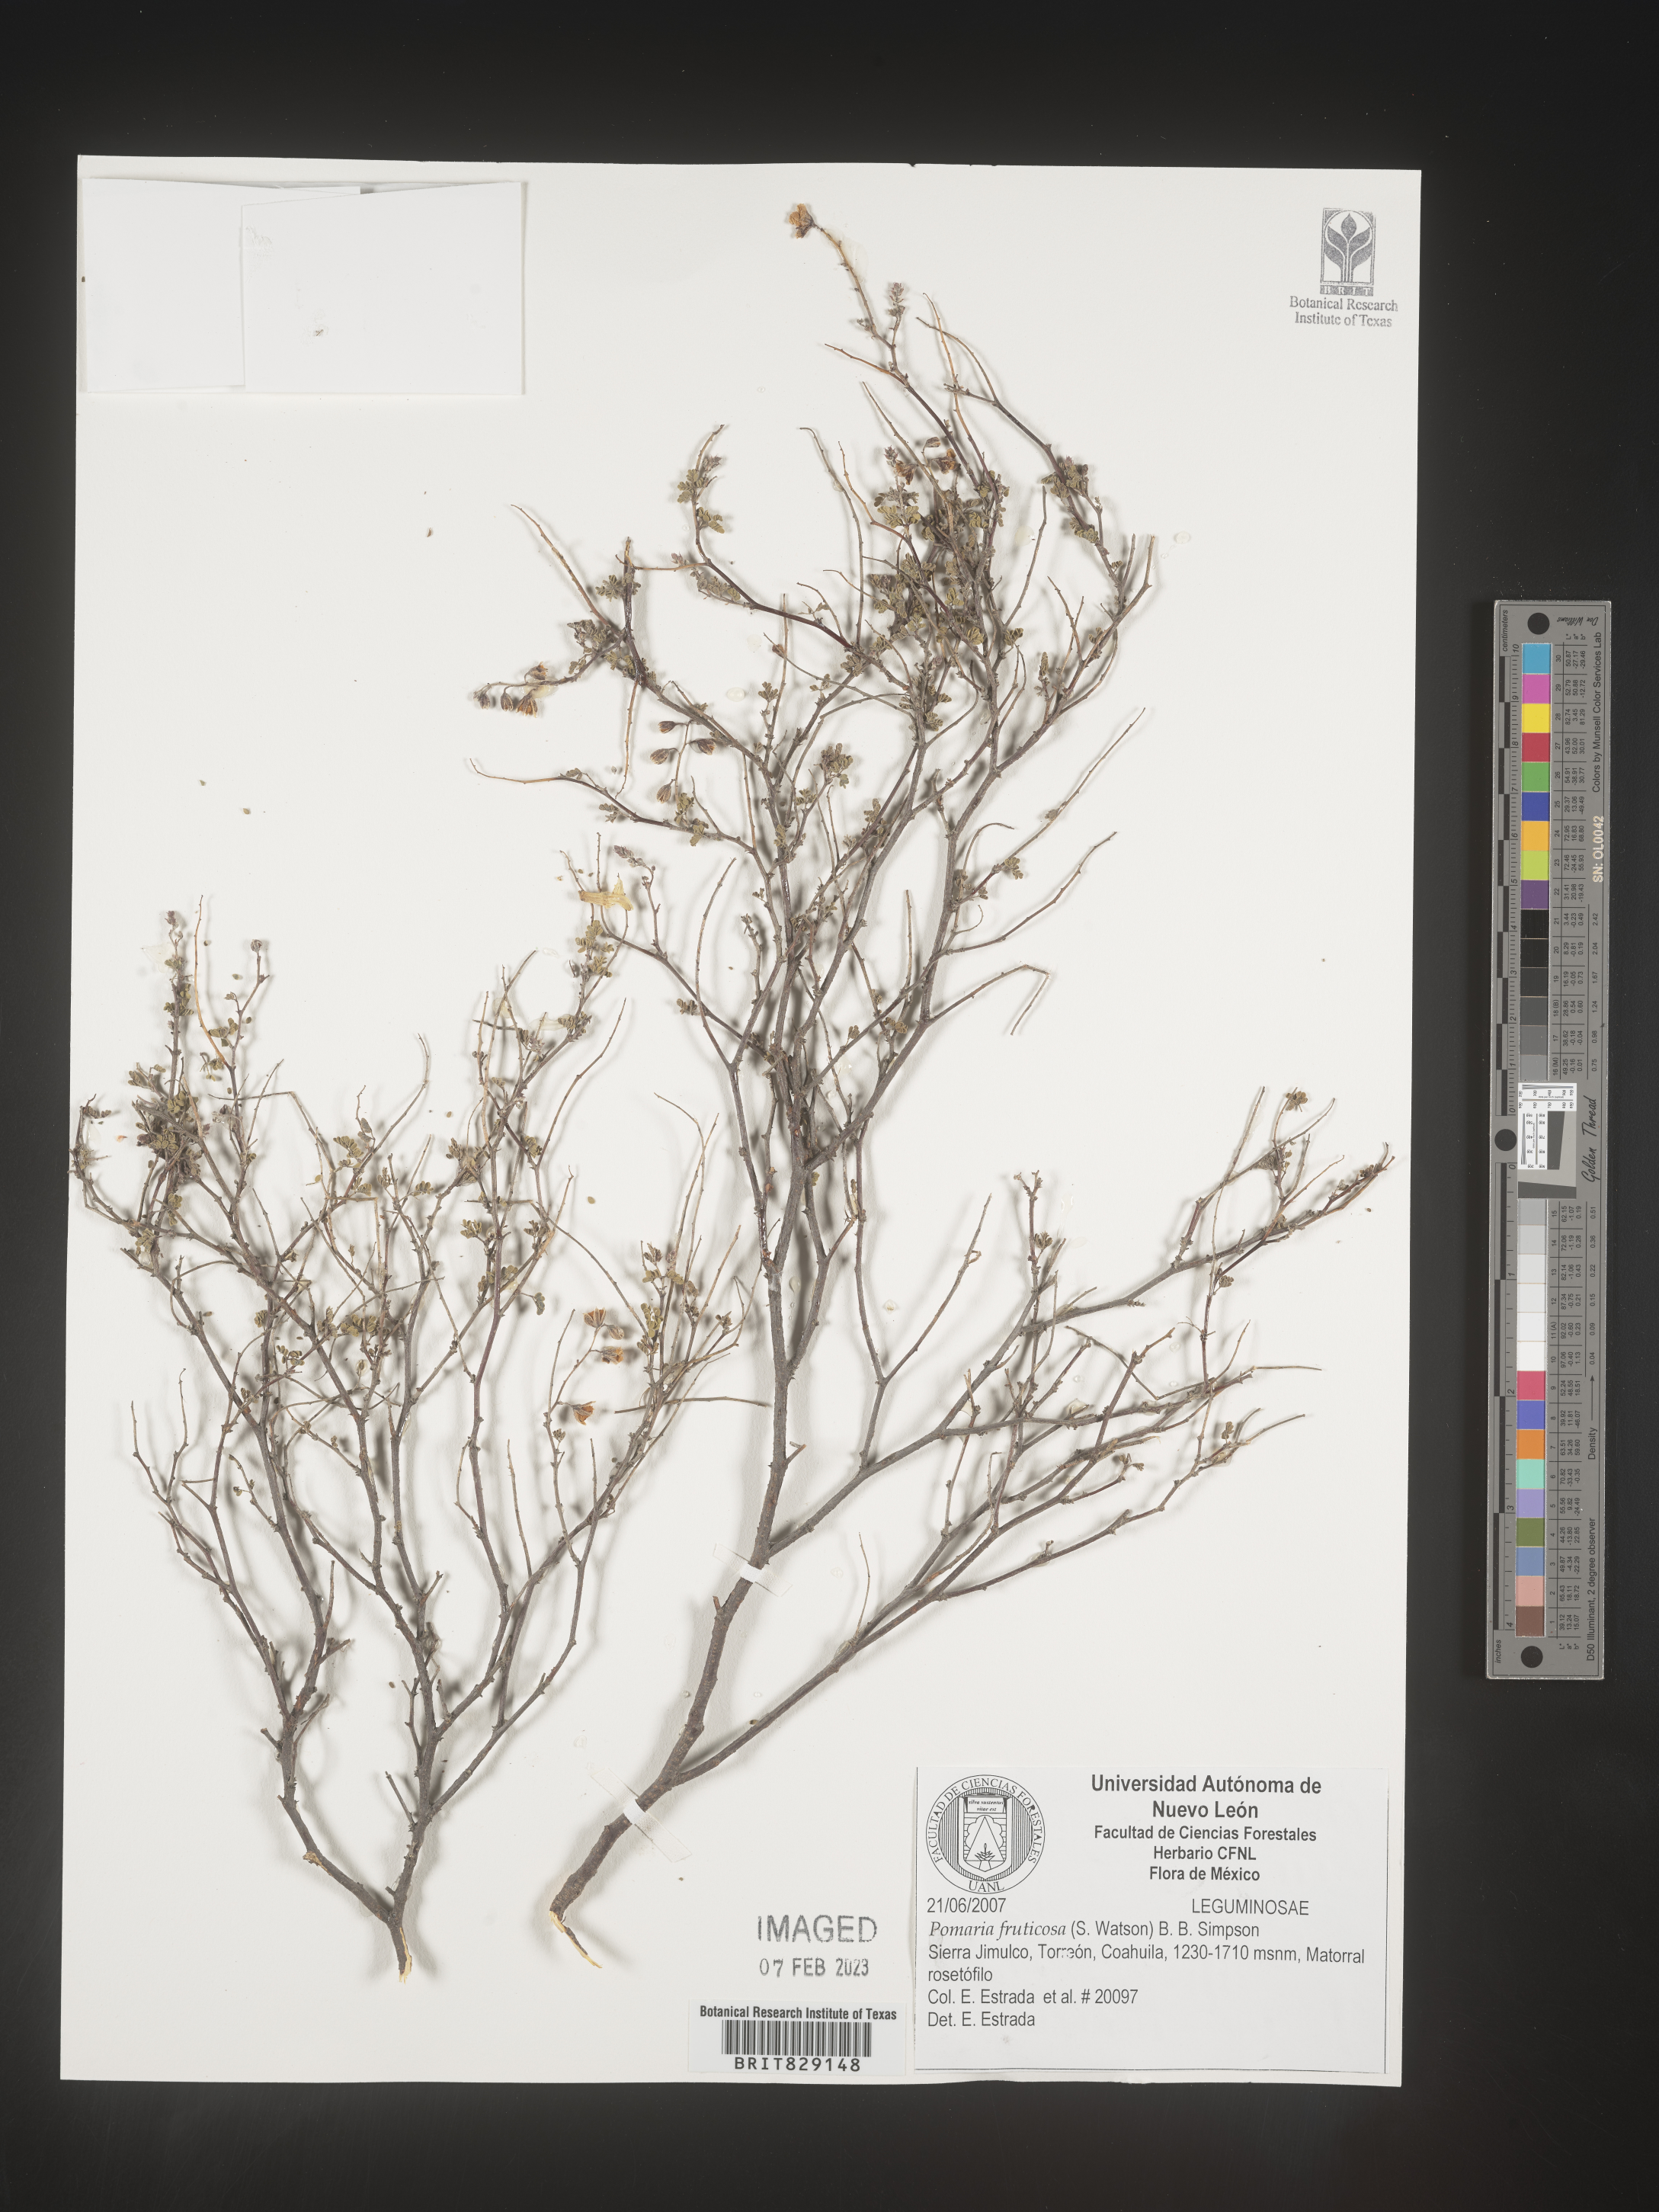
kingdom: Plantae
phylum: Tracheophyta
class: Magnoliopsida
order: Fabales
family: Fabaceae
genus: Pomaria
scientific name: Pomaria
